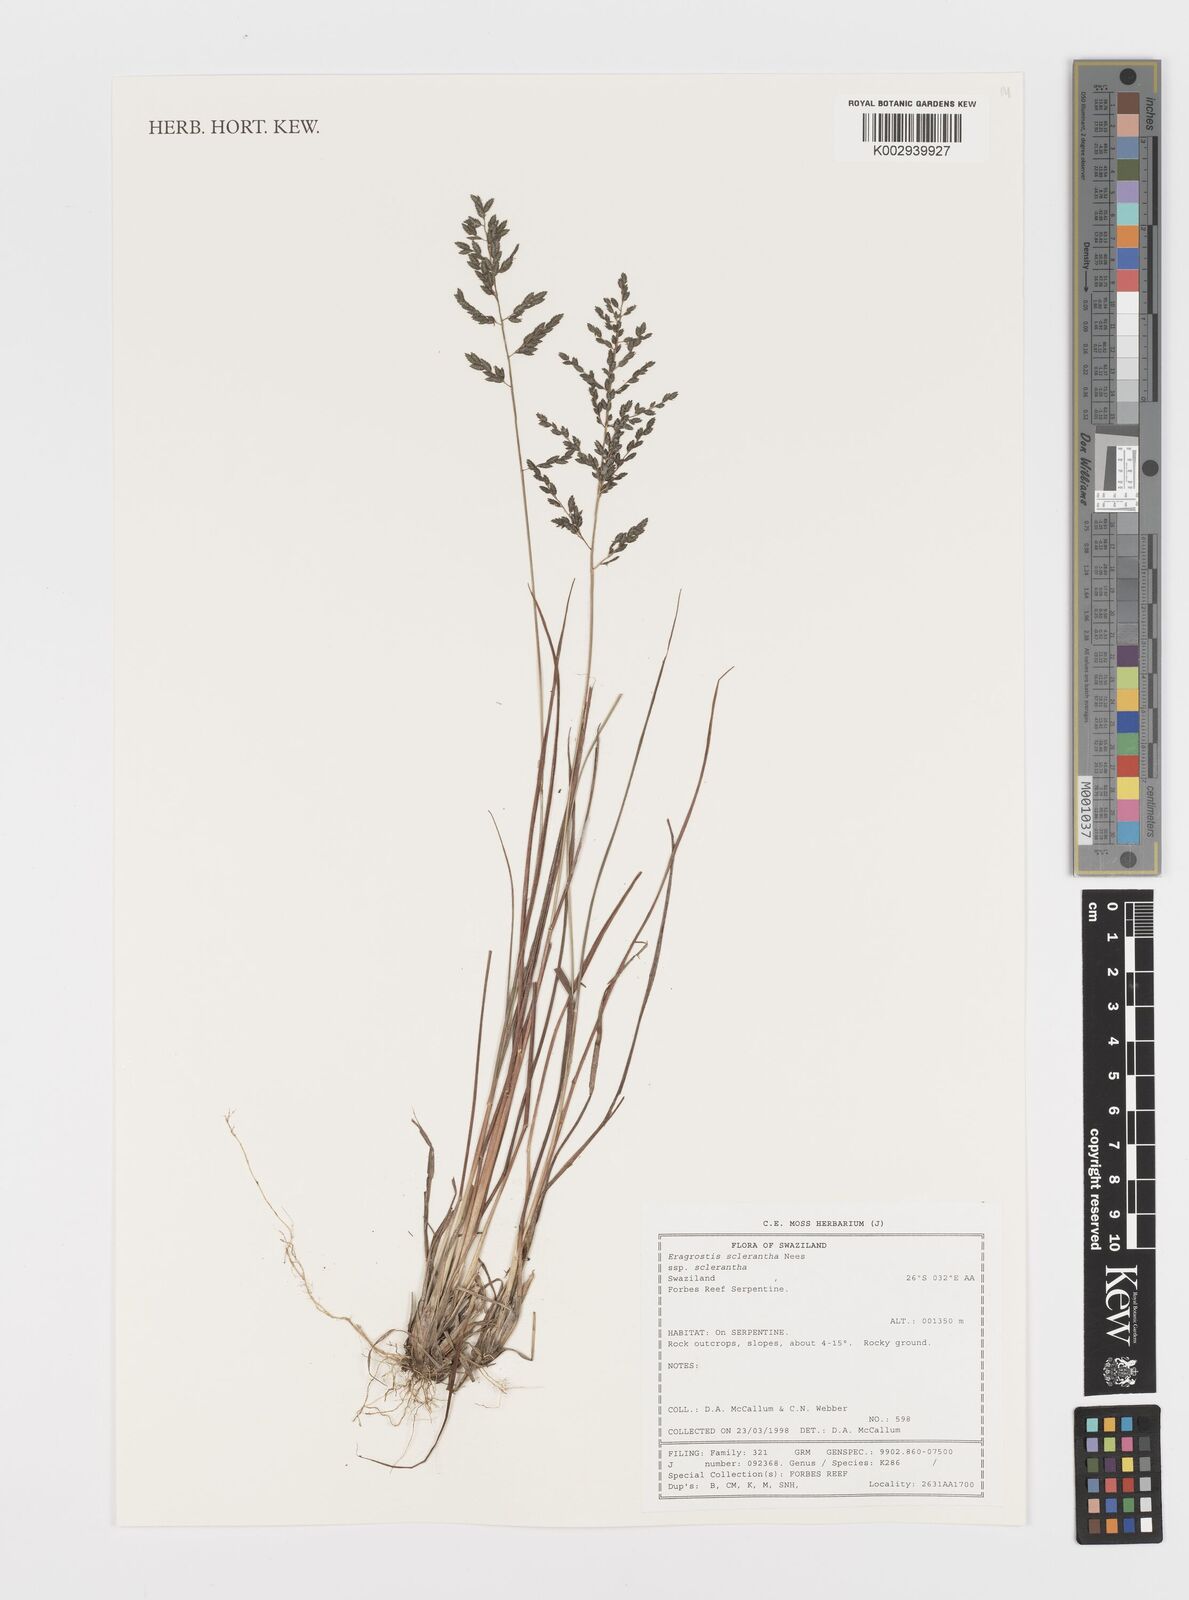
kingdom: Plantae
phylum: Tracheophyta
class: Liliopsida
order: Poales
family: Poaceae
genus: Eragrostis
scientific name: Eragrostis sclerantha
